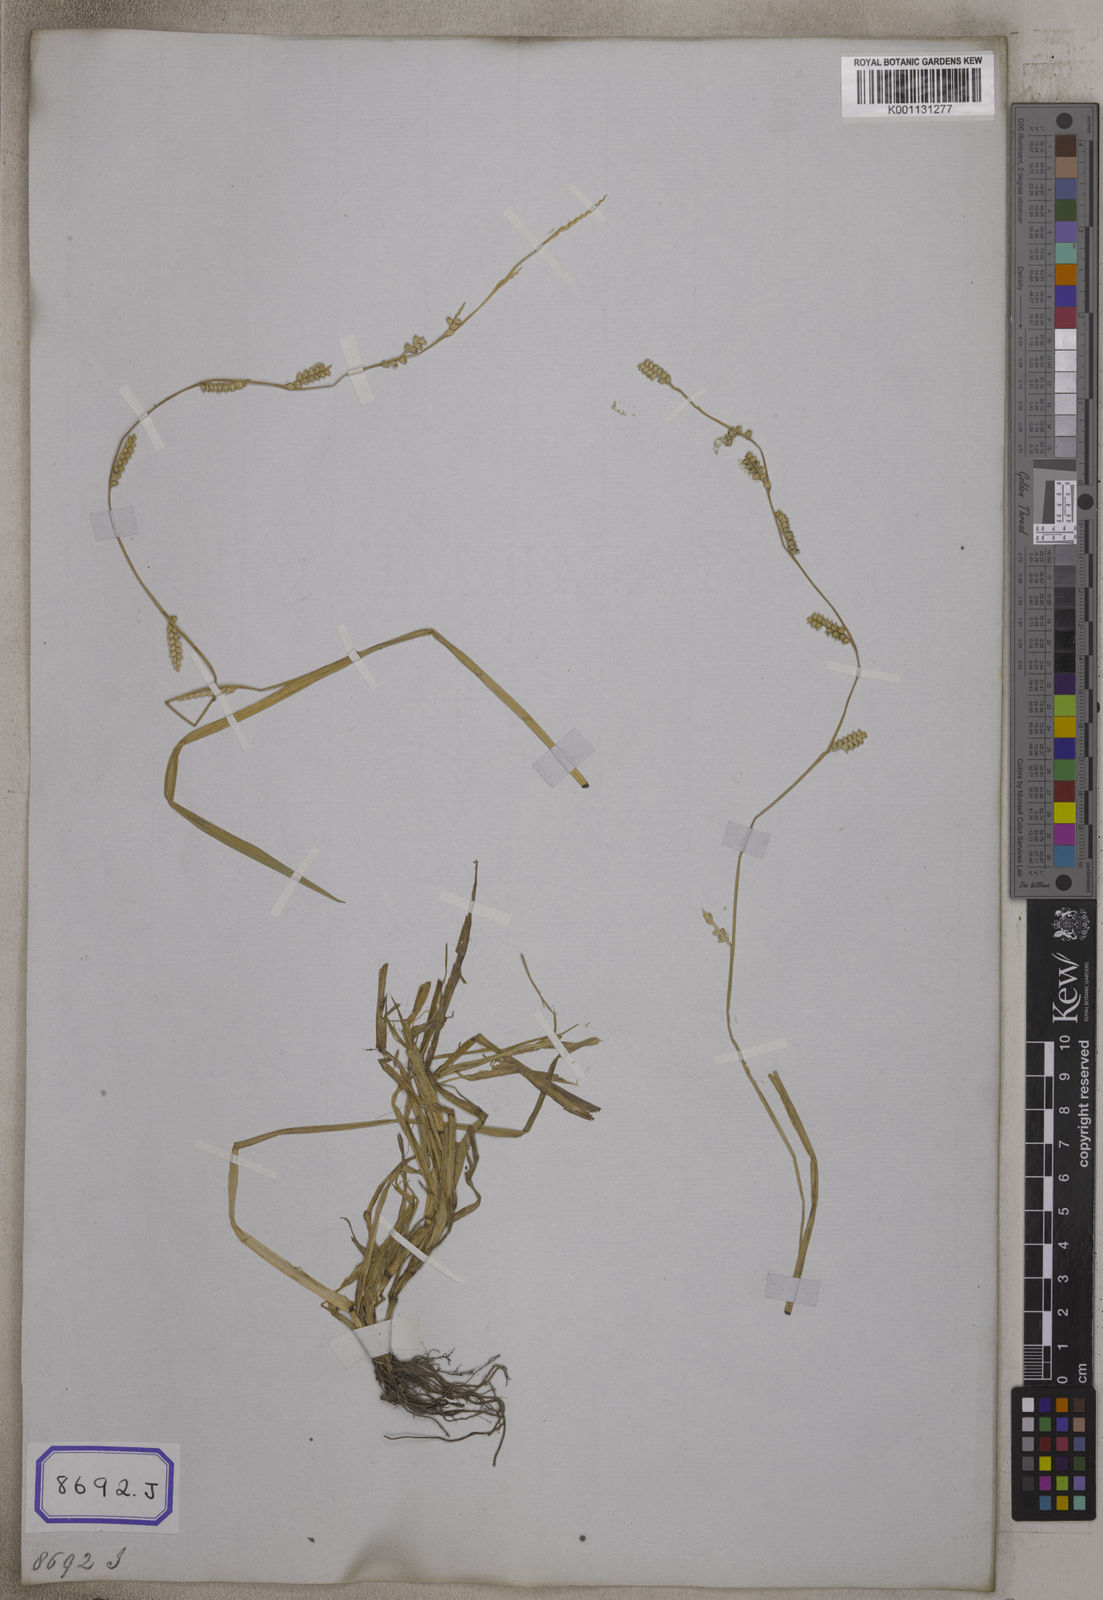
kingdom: Plantae
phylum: Tracheophyta
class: Liliopsida
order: Poales
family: Poaceae
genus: Setaria
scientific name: Setaria flavida
